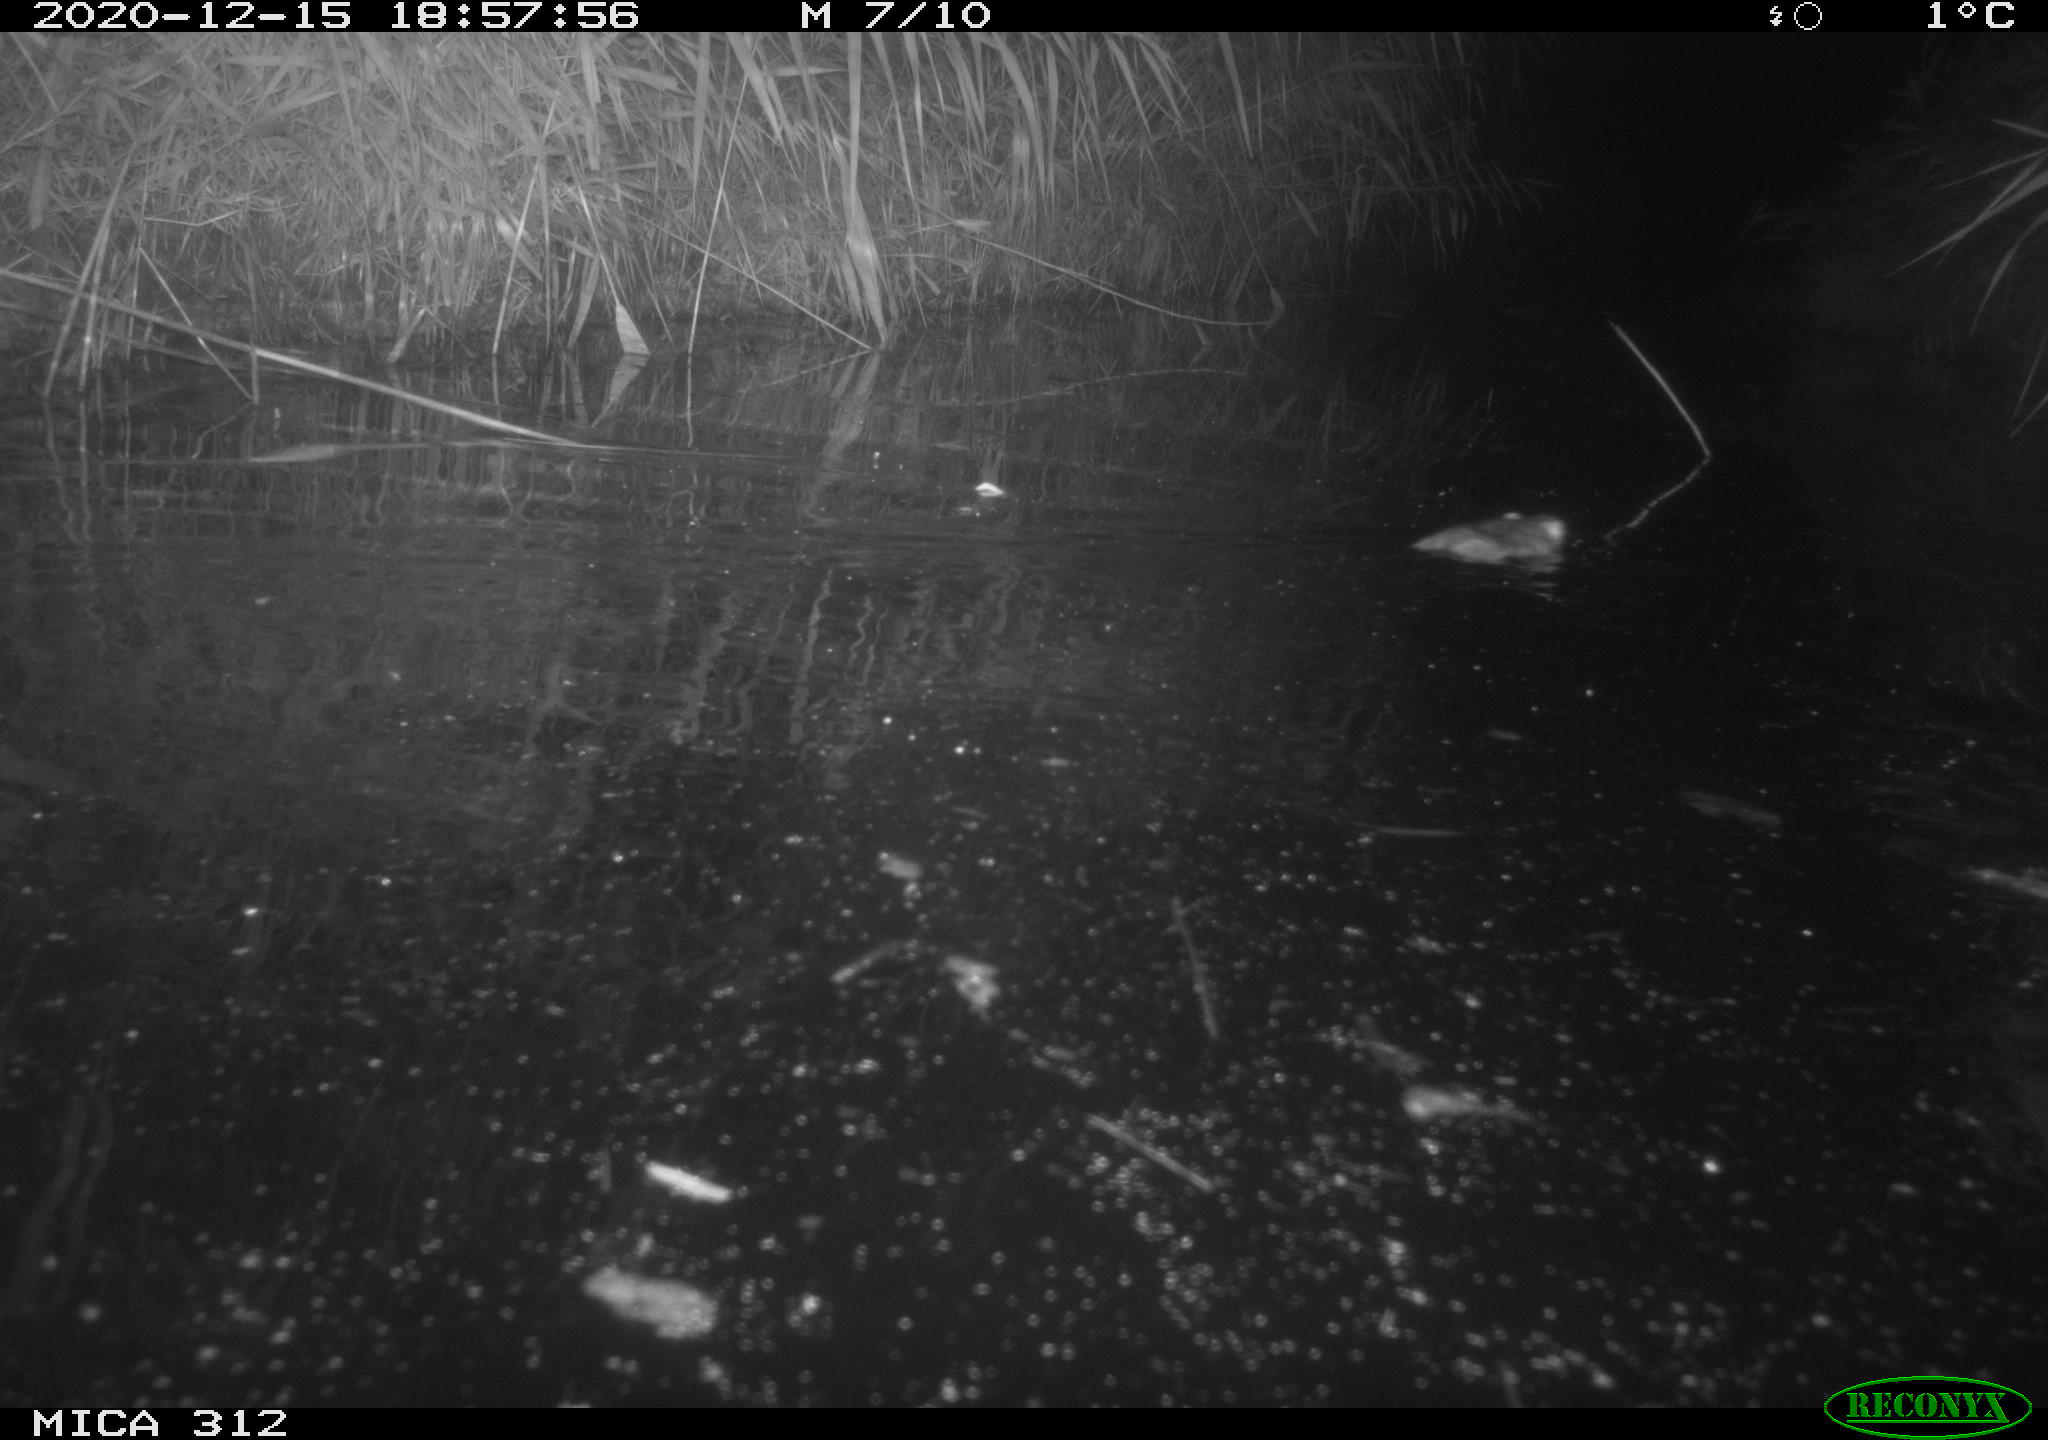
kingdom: Animalia
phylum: Chordata
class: Mammalia
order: Rodentia
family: Muridae
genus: Rattus
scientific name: Rattus norvegicus
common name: Brown rat
